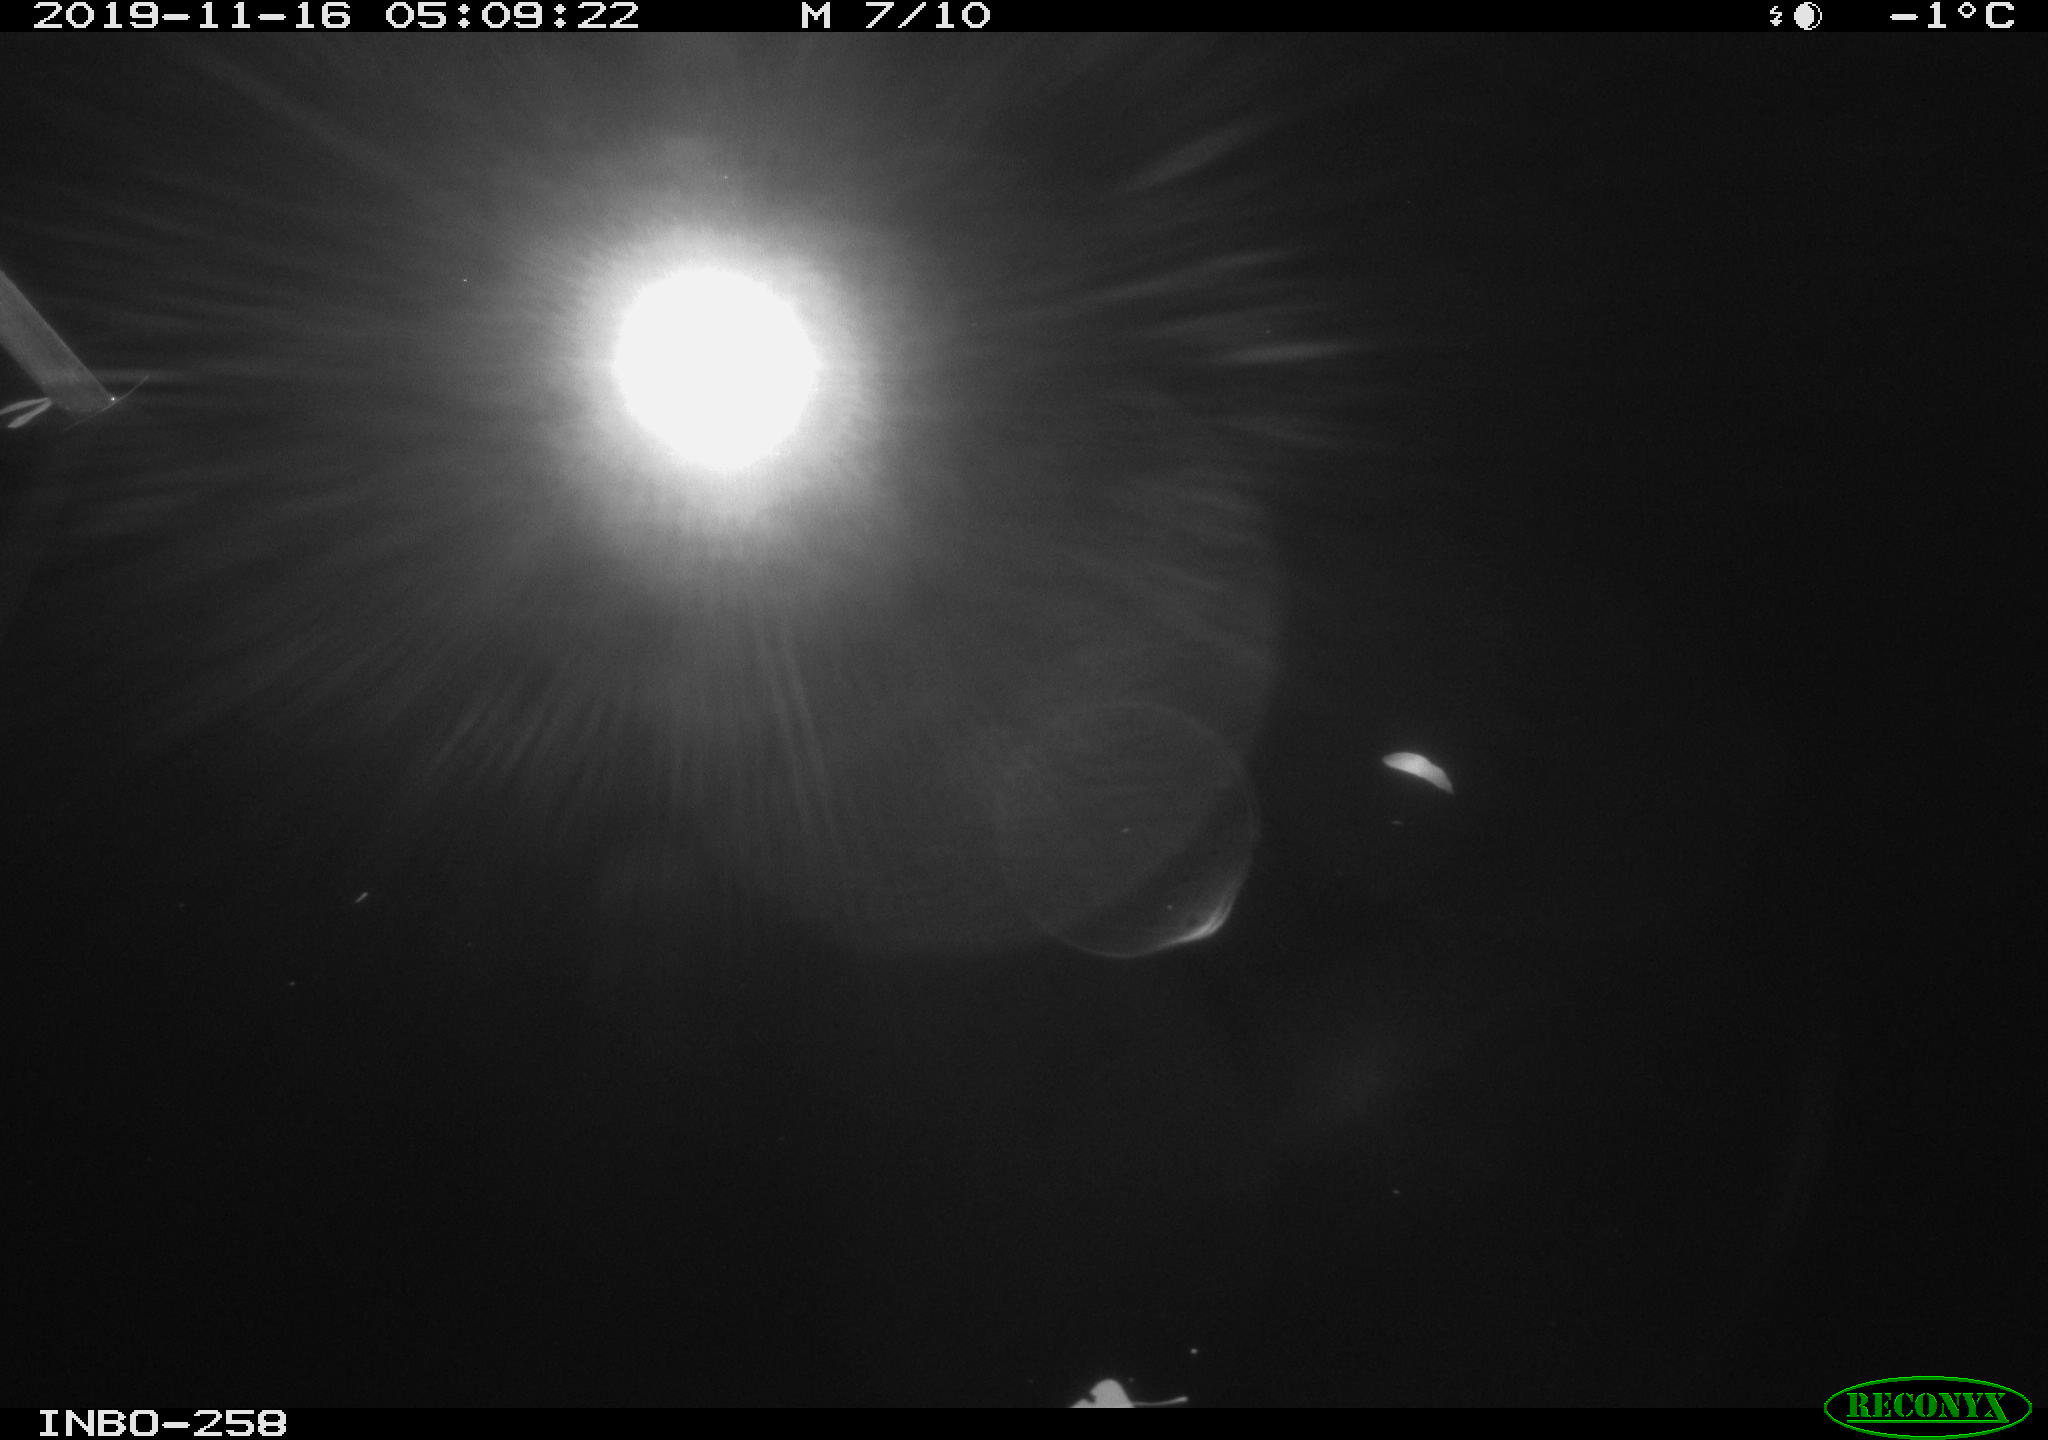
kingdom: Animalia
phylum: Chordata
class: Aves
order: Anseriformes
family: Anatidae
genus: Anas
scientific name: Anas platyrhynchos
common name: Mallard
